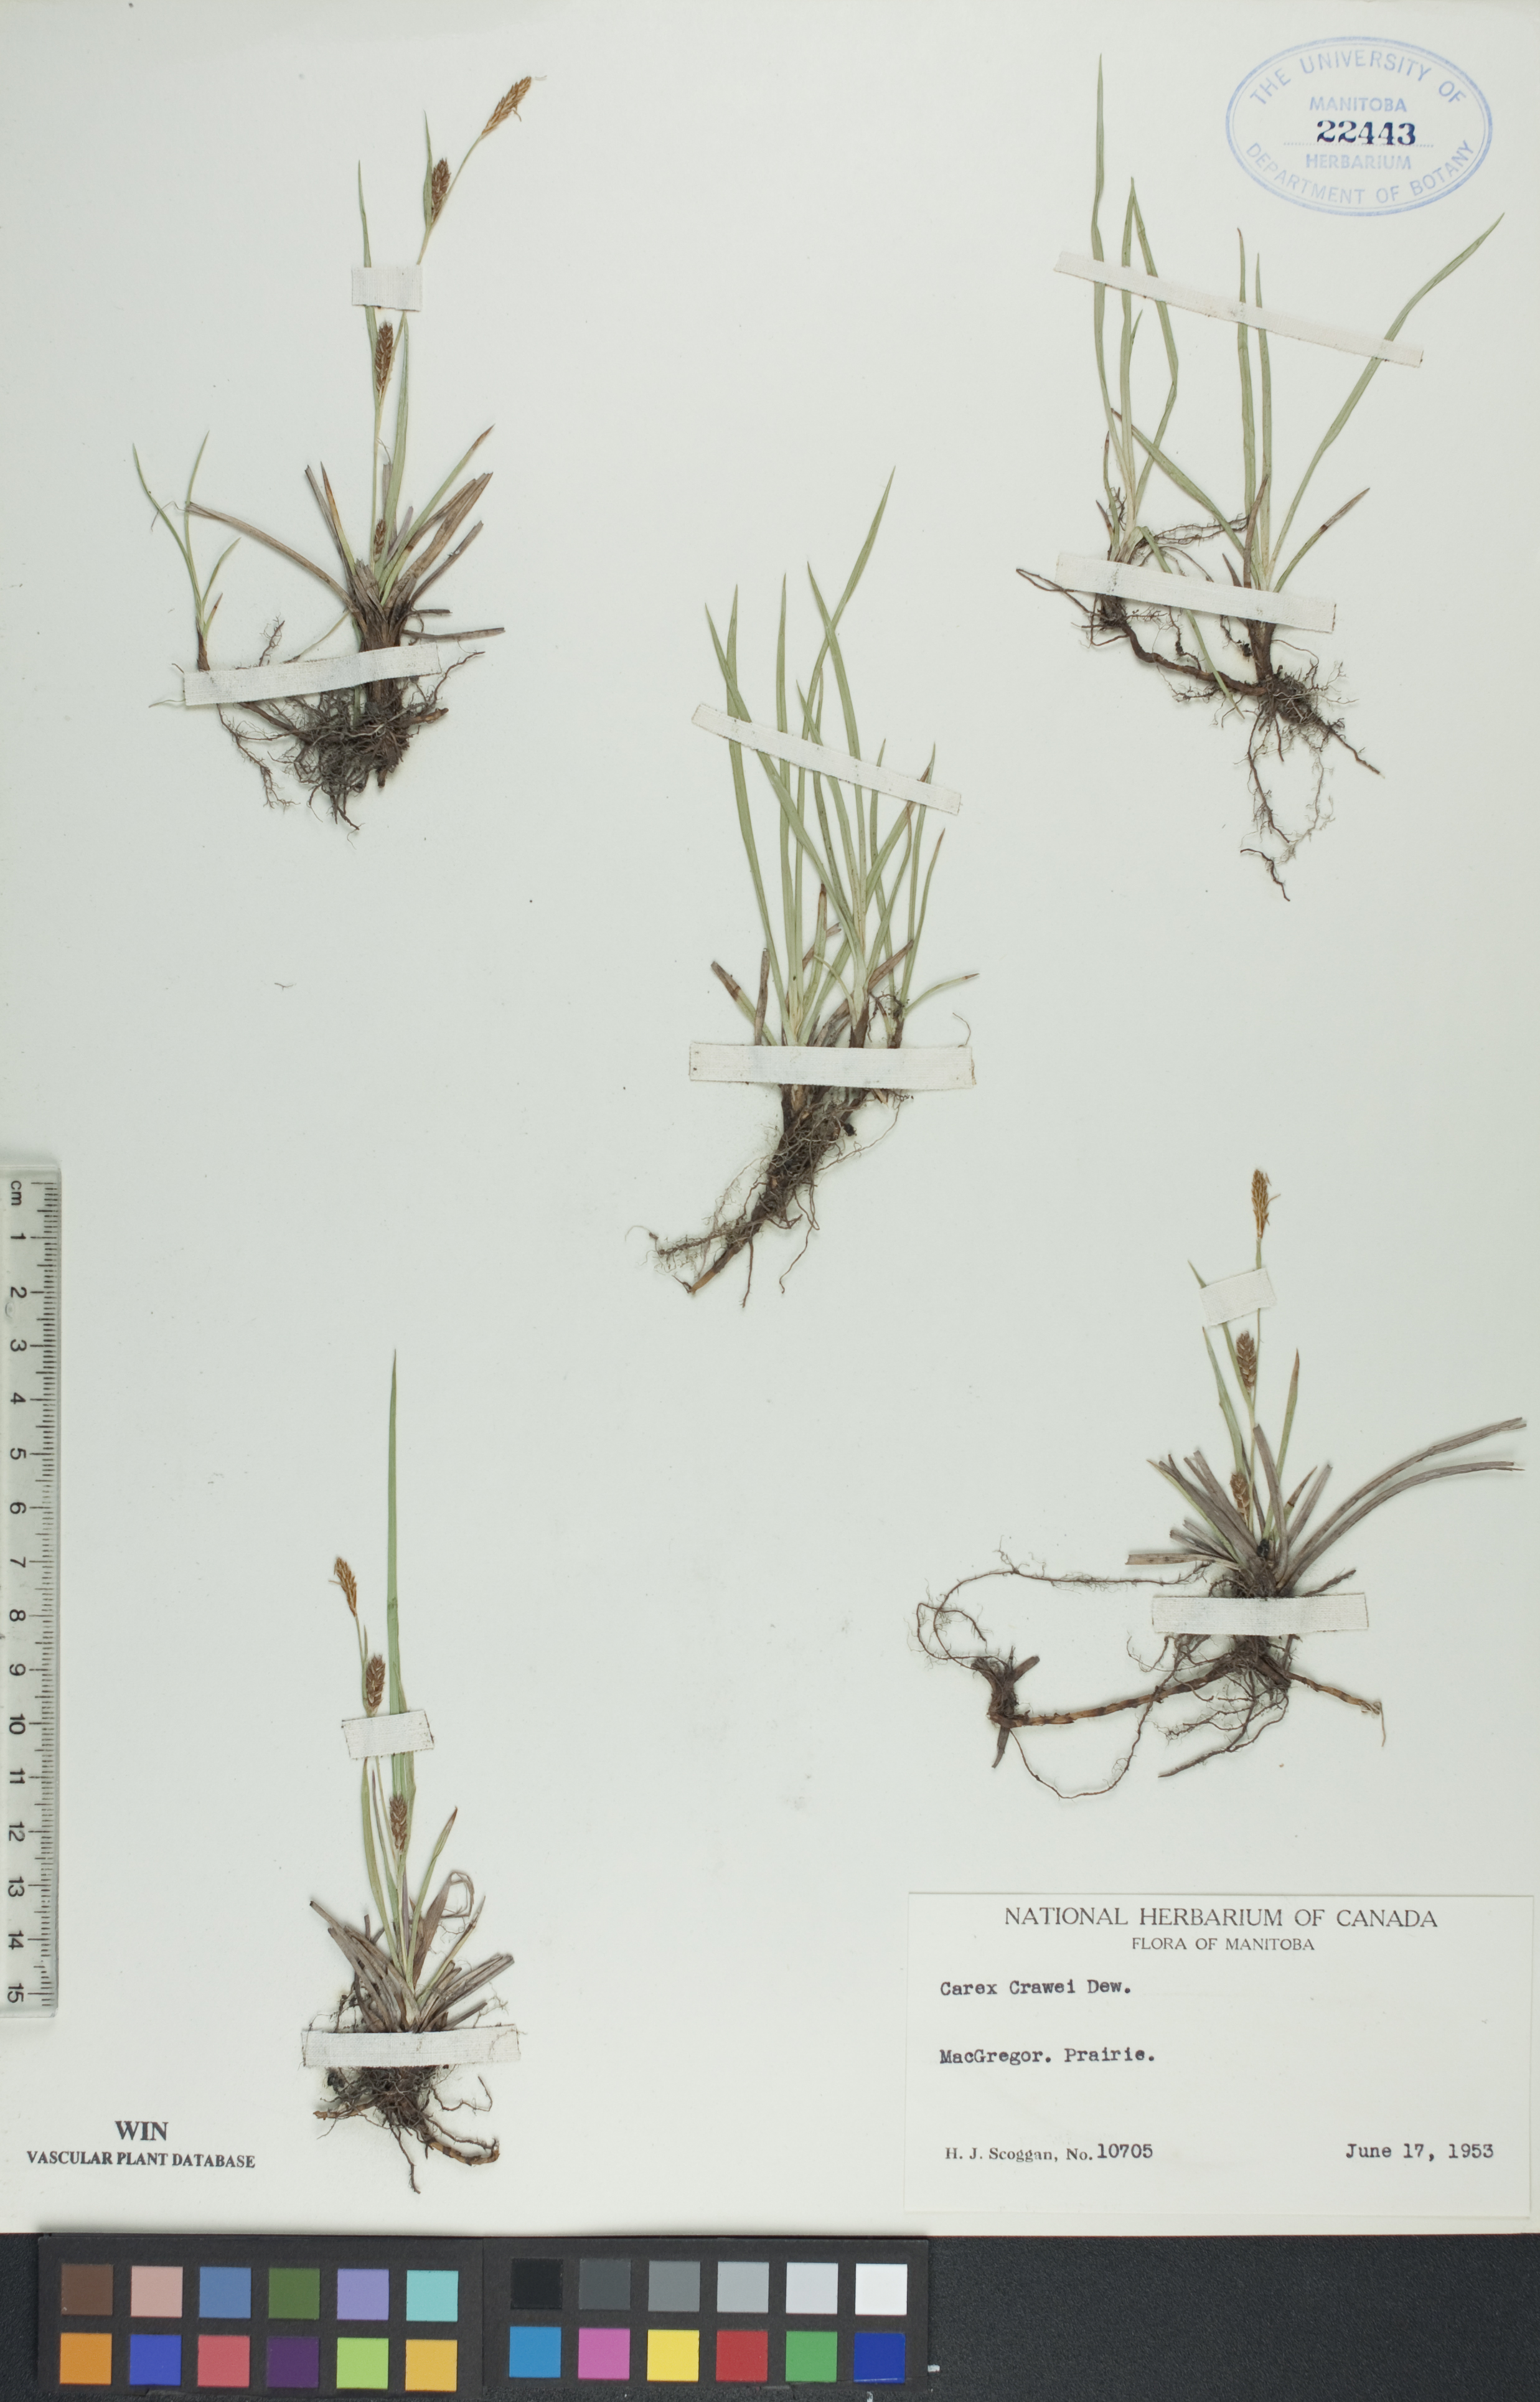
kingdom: Plantae
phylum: Tracheophyta
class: Liliopsida
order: Poales
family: Cyperaceae
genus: Carex
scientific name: Carex crawei
